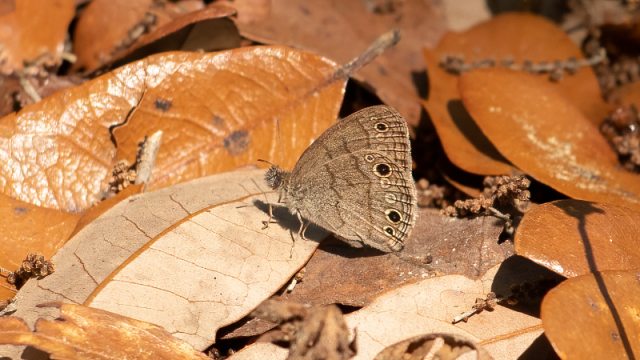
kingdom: Animalia
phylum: Arthropoda
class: Insecta
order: Lepidoptera
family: Nymphalidae
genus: Hermeuptychia
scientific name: Hermeuptychia hermes
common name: Carolina Satyr
